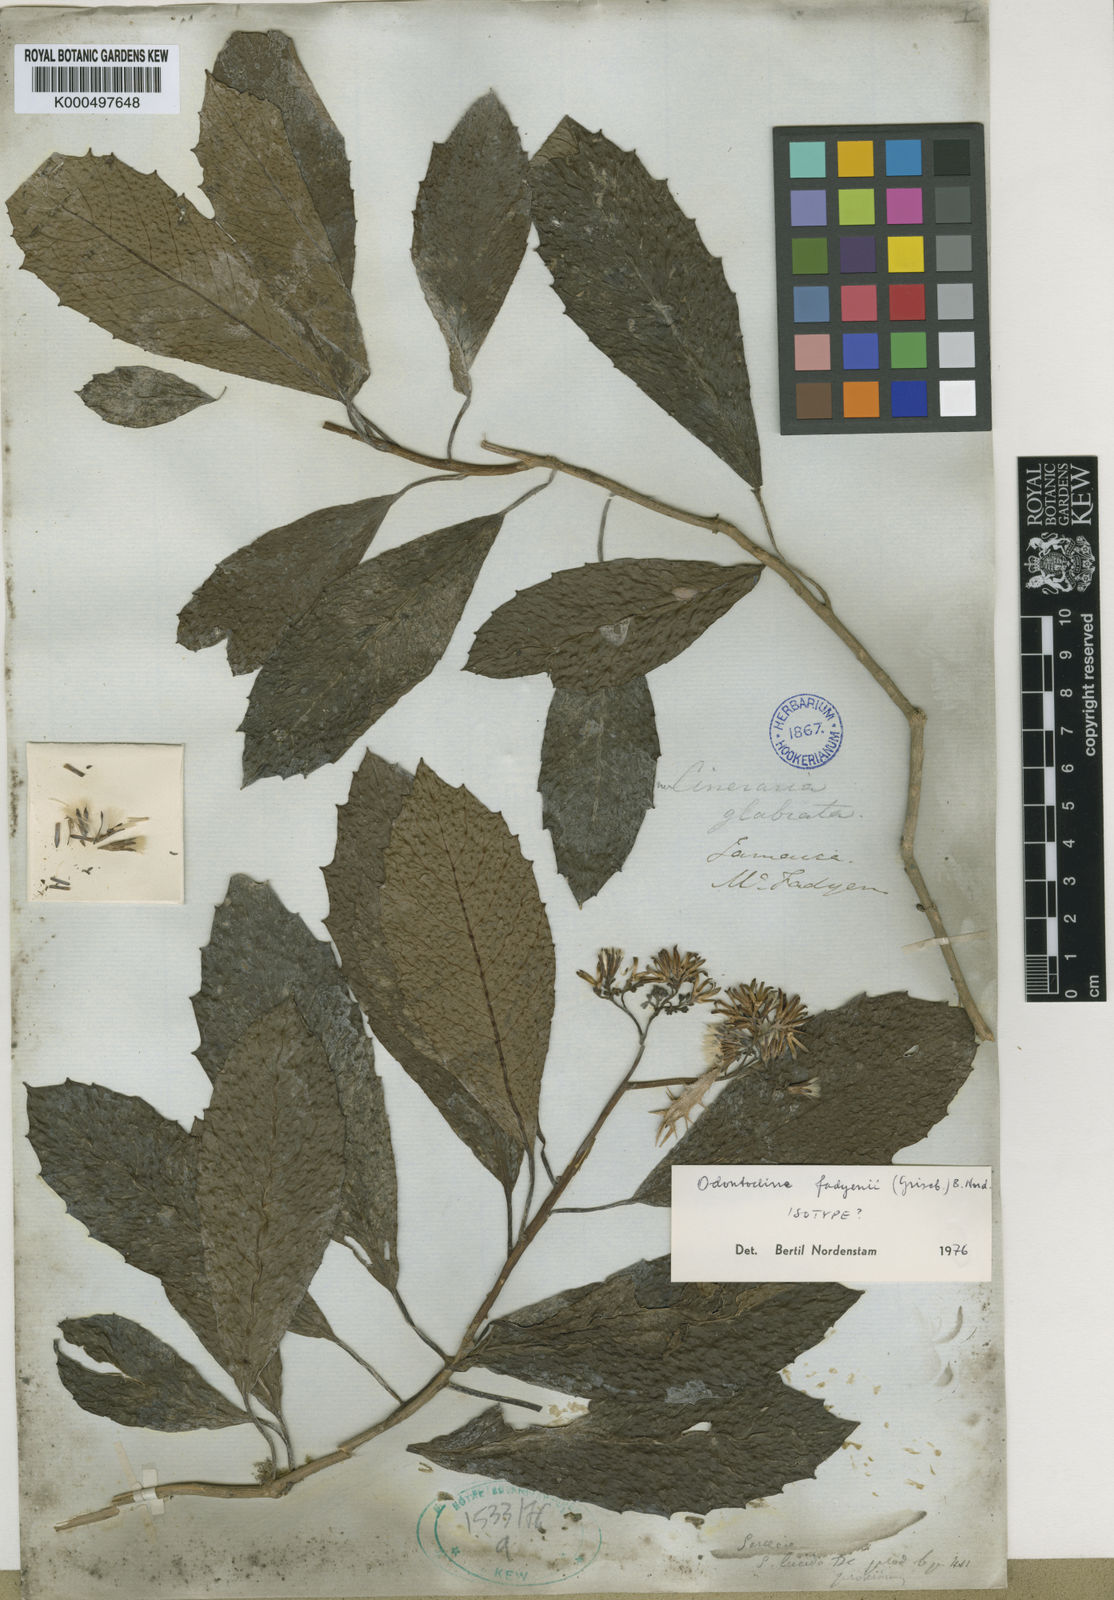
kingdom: Plantae
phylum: Tracheophyta
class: Magnoliopsida
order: Asterales
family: Asteraceae
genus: Odontocline
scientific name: Odontocline fadyenii
